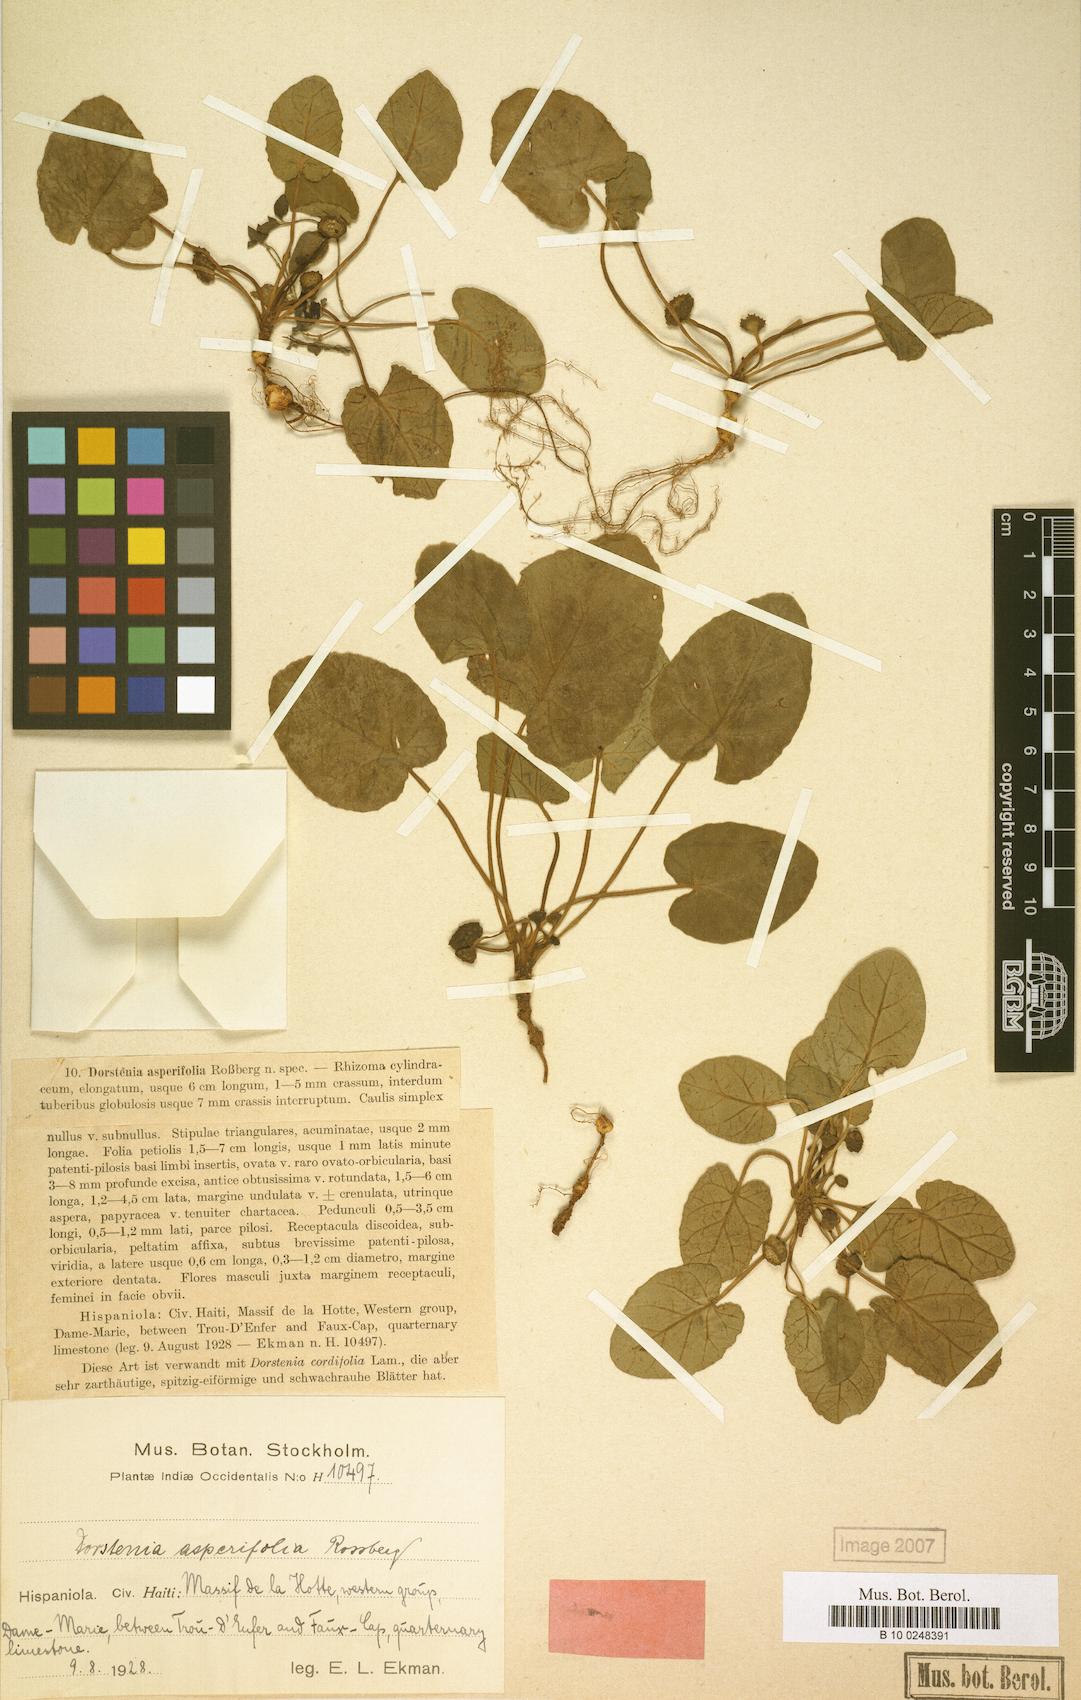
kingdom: Plantae
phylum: Tracheophyta
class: Magnoliopsida
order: Rosales
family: Moraceae
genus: Dorstenia
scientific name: Dorstenia caimitensis
